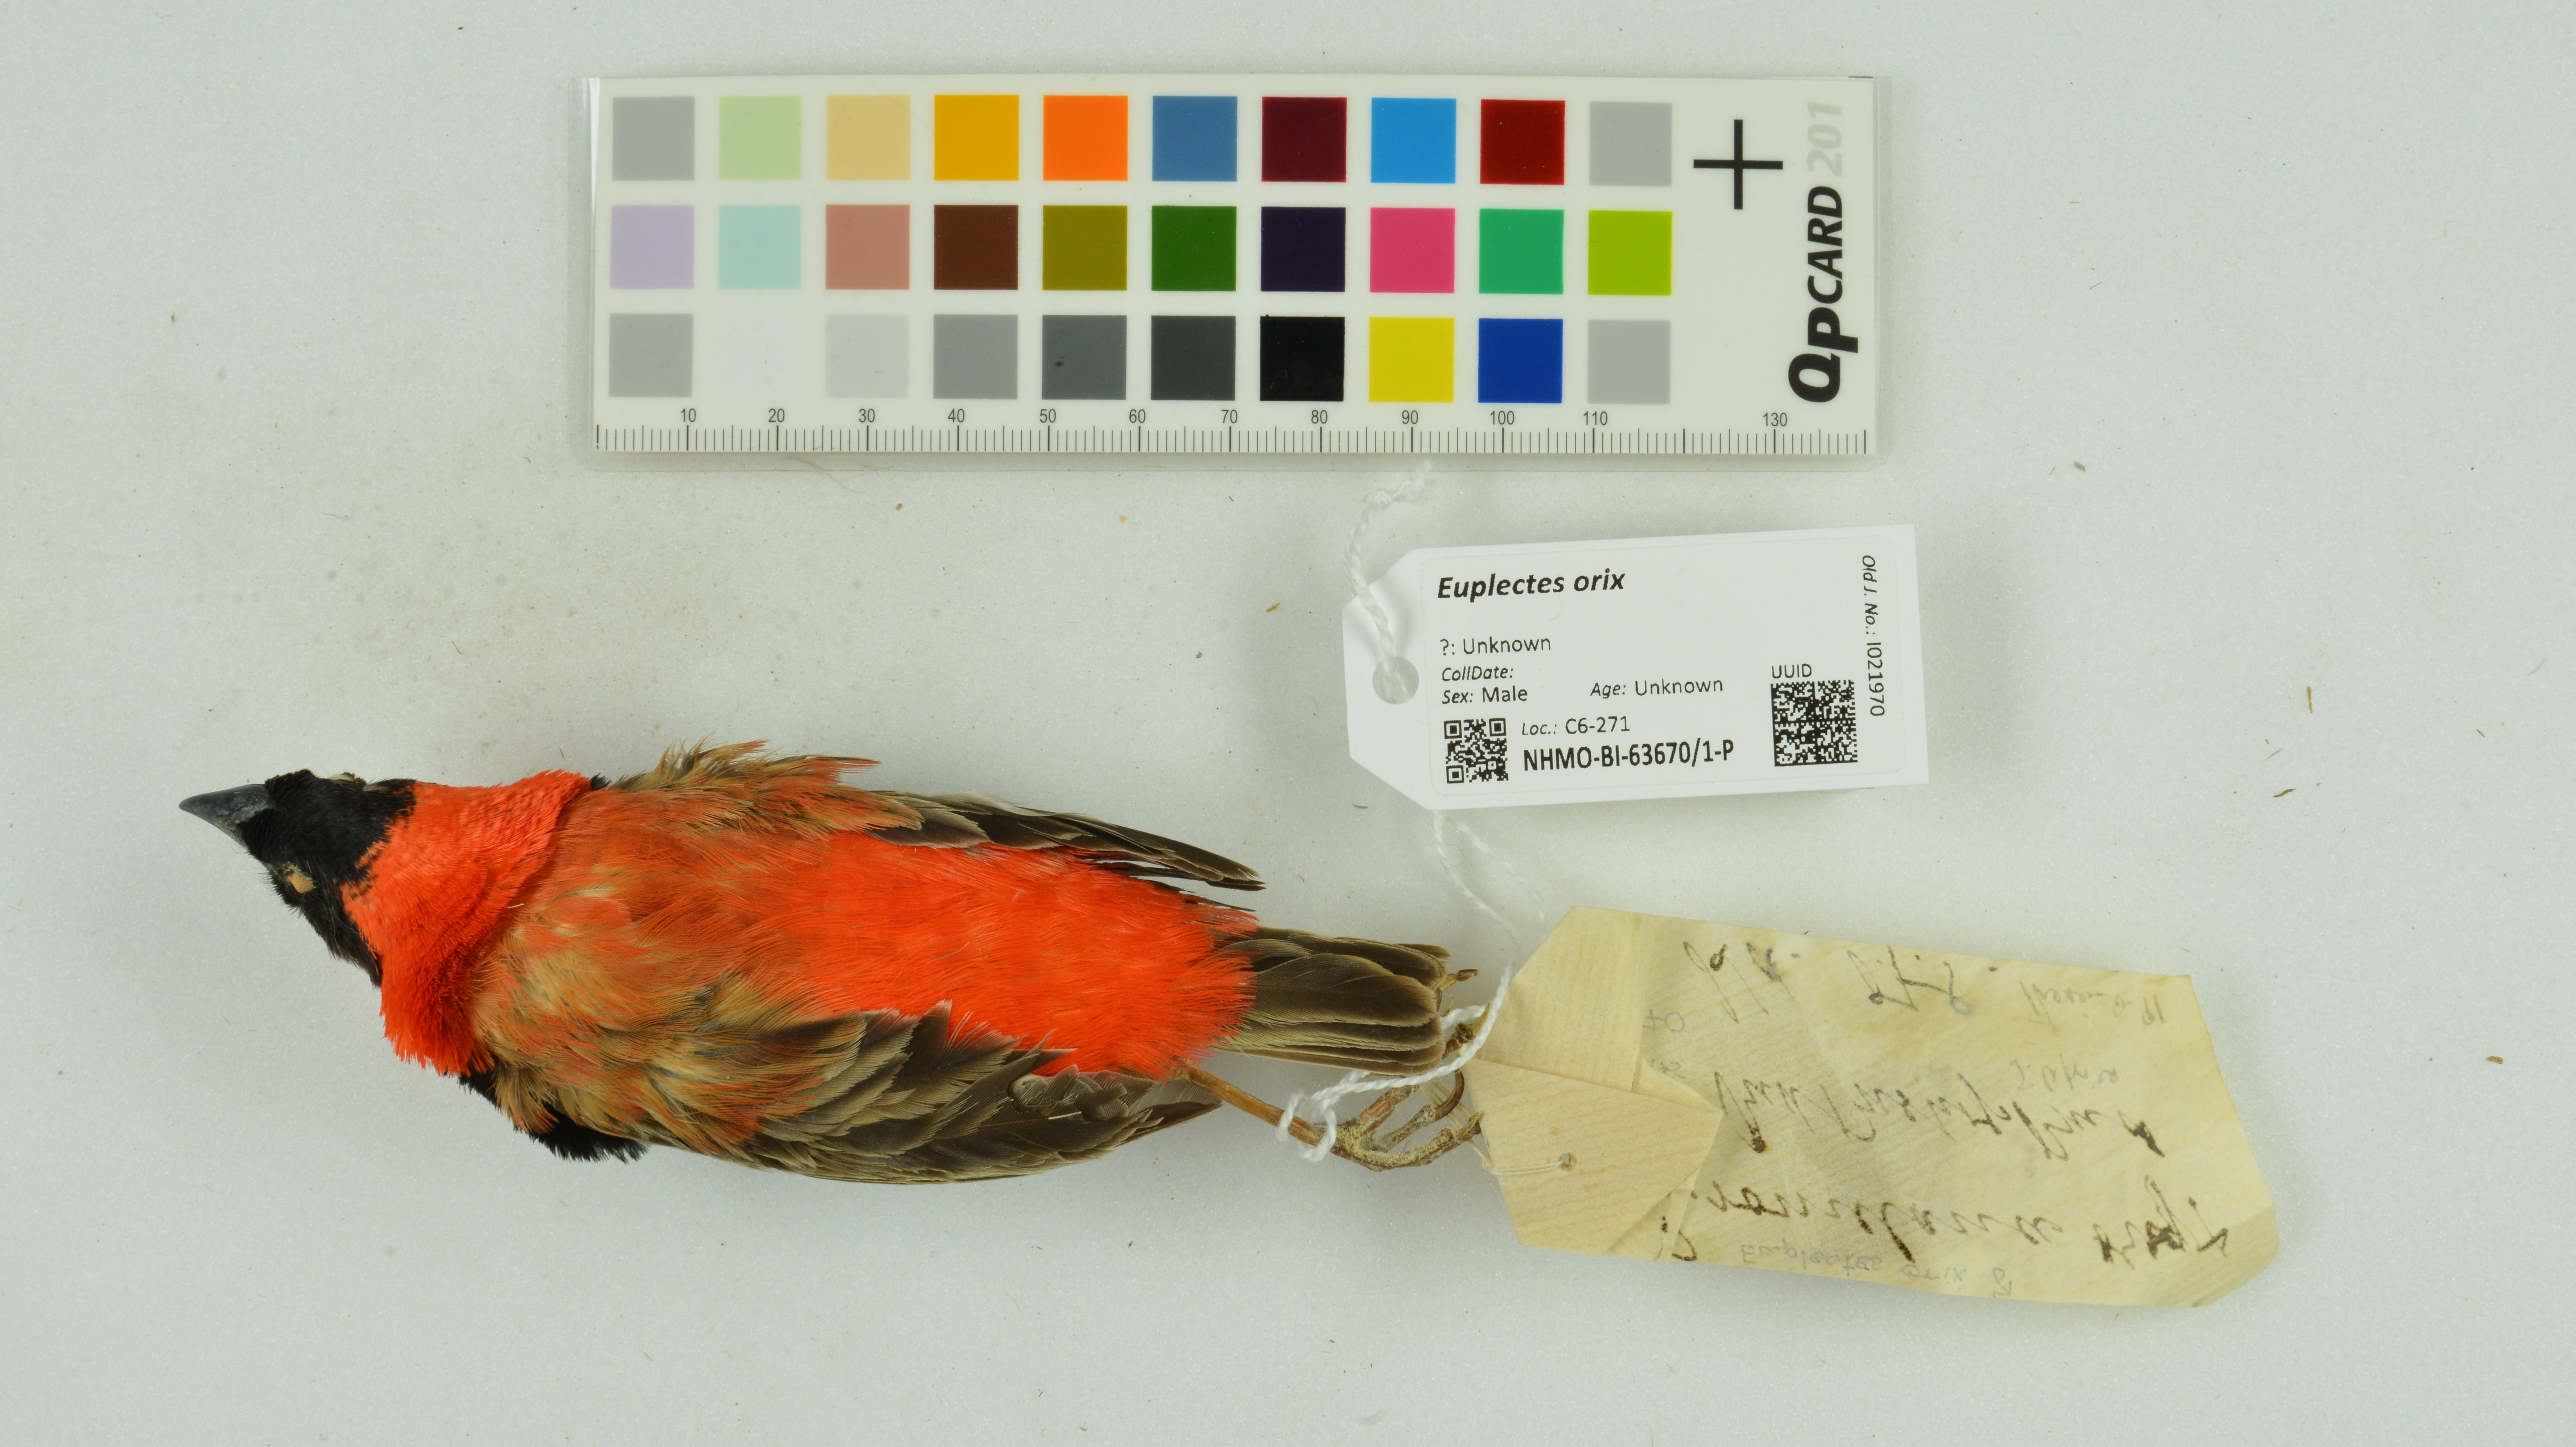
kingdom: Animalia
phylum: Chordata
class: Aves
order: Passeriformes
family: Ploceidae
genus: Euplectes
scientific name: Euplectes orix
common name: Southern red bishop
